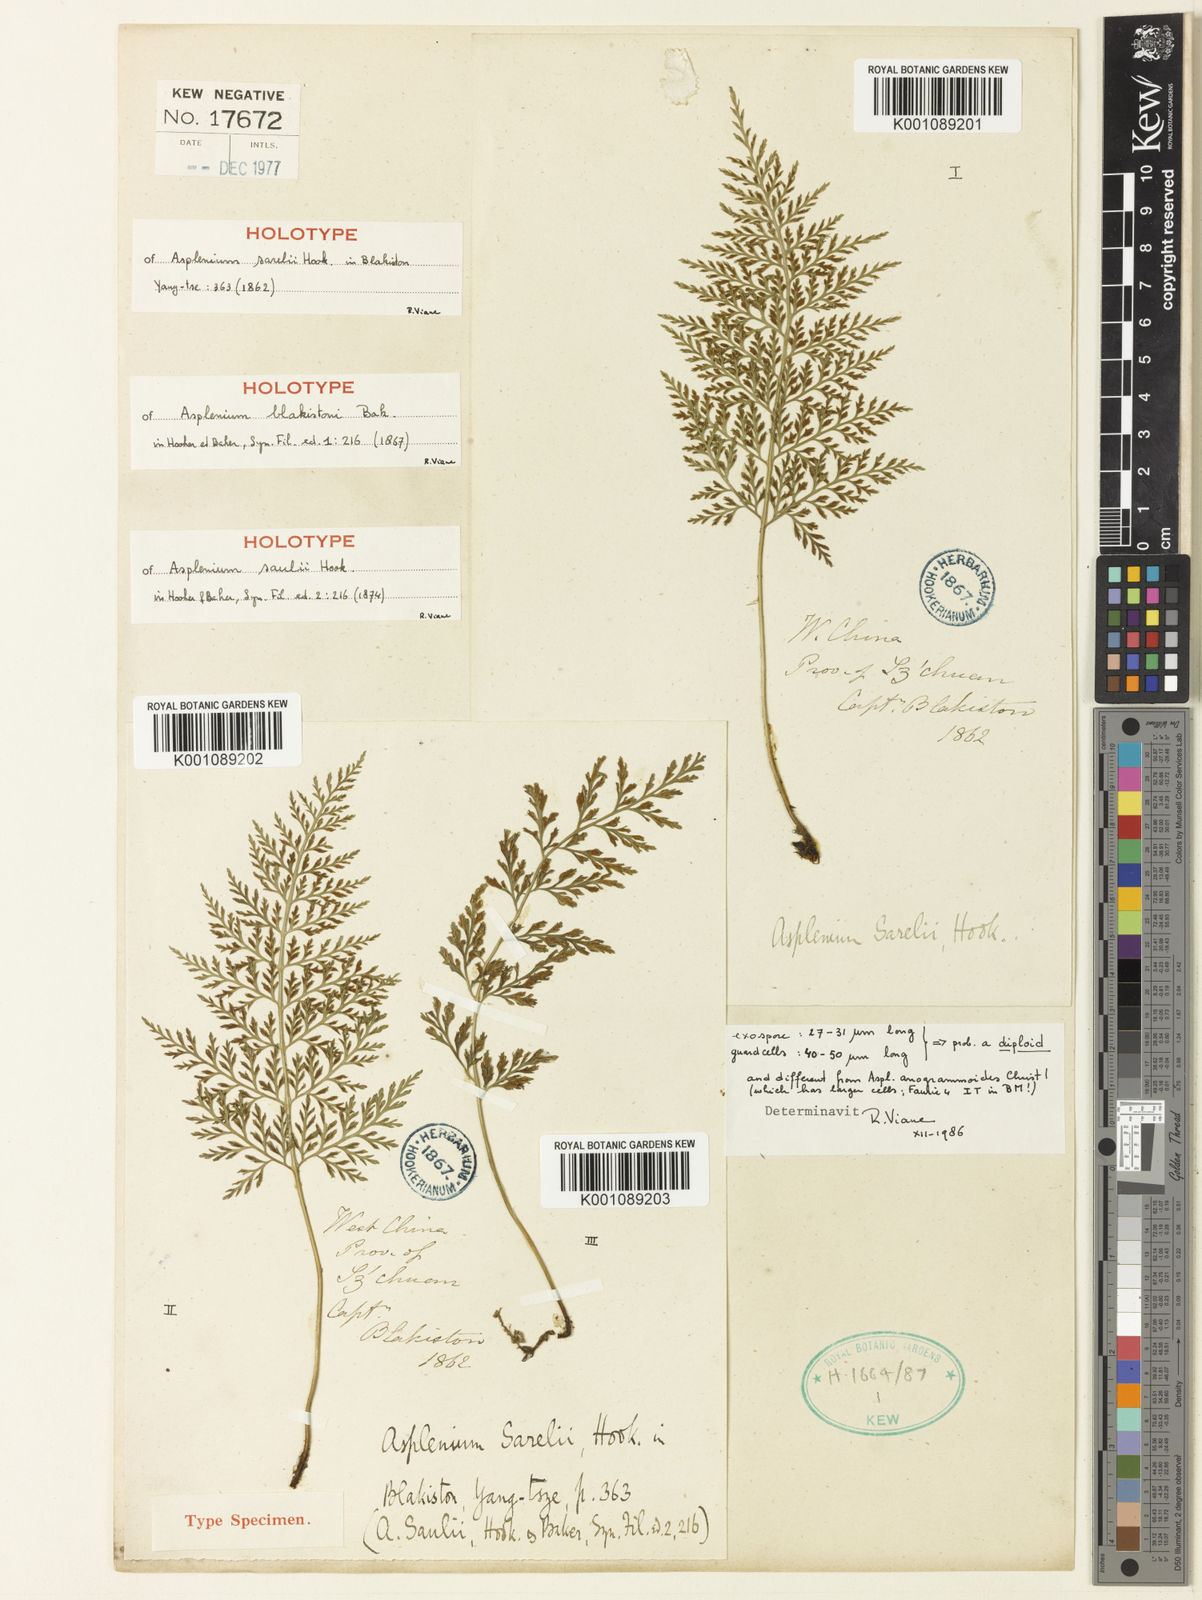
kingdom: Plantae
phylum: Tracheophyta
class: Polypodiopsida
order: Polypodiales
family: Cystopteridaceae
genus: Cystopteris
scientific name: Cystopteris sudetica
